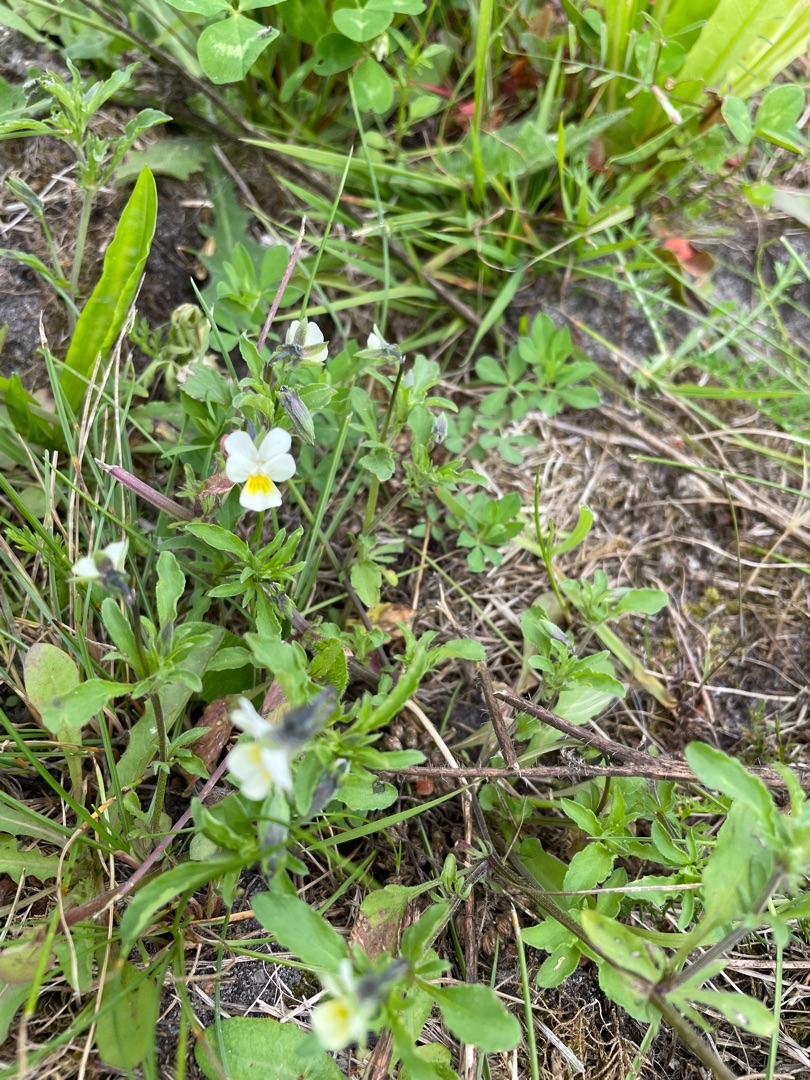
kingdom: Plantae
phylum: Tracheophyta
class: Magnoliopsida
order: Malpighiales
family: Violaceae
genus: Viola
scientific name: Viola arvensis
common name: Ager-stedmoderblomst
